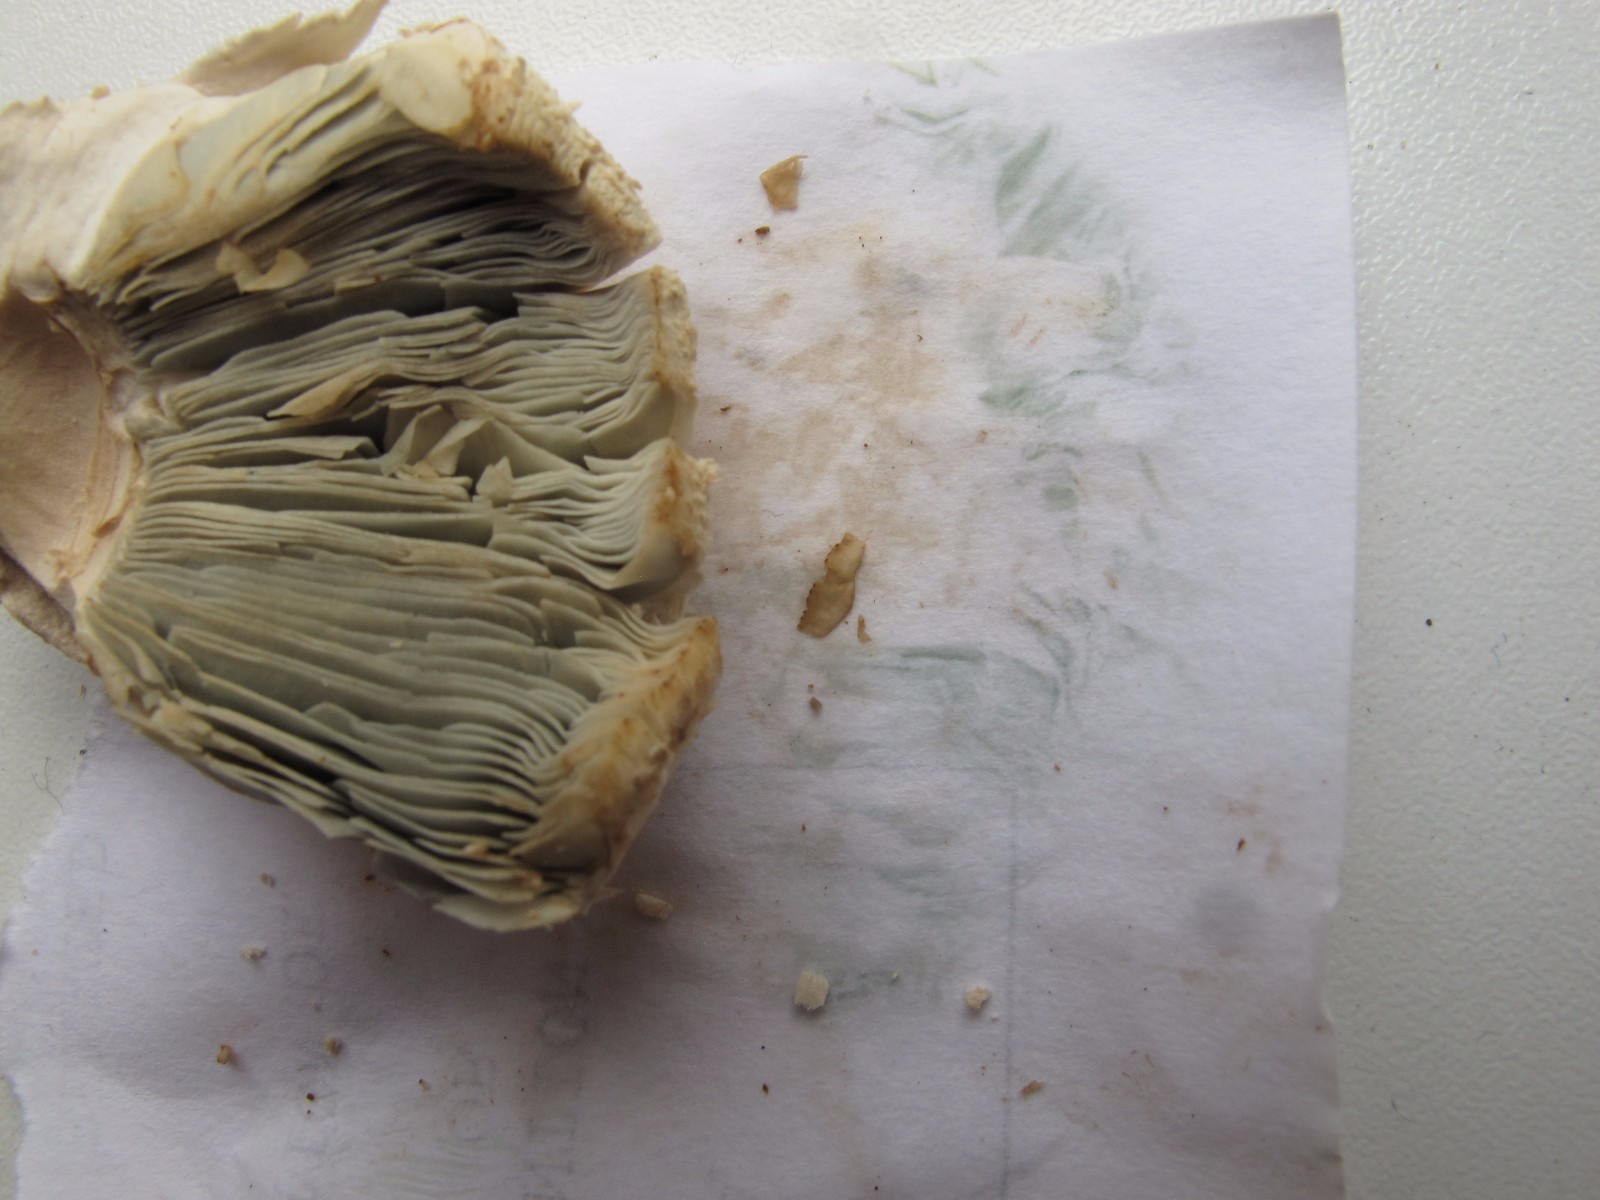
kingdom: Fungi
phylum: Basidiomycota
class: Agaricomycetes
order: Agaricales
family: Agaricaceae
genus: Chlorophyllum
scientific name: Chlorophyllum molybdites
